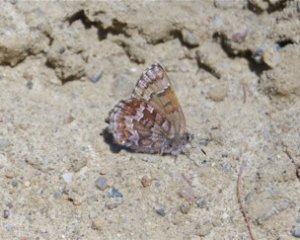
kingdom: Animalia
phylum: Arthropoda
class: Insecta
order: Lepidoptera
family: Lycaenidae
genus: Incisalia
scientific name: Incisalia niphon
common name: Eastern Pine Elfin
